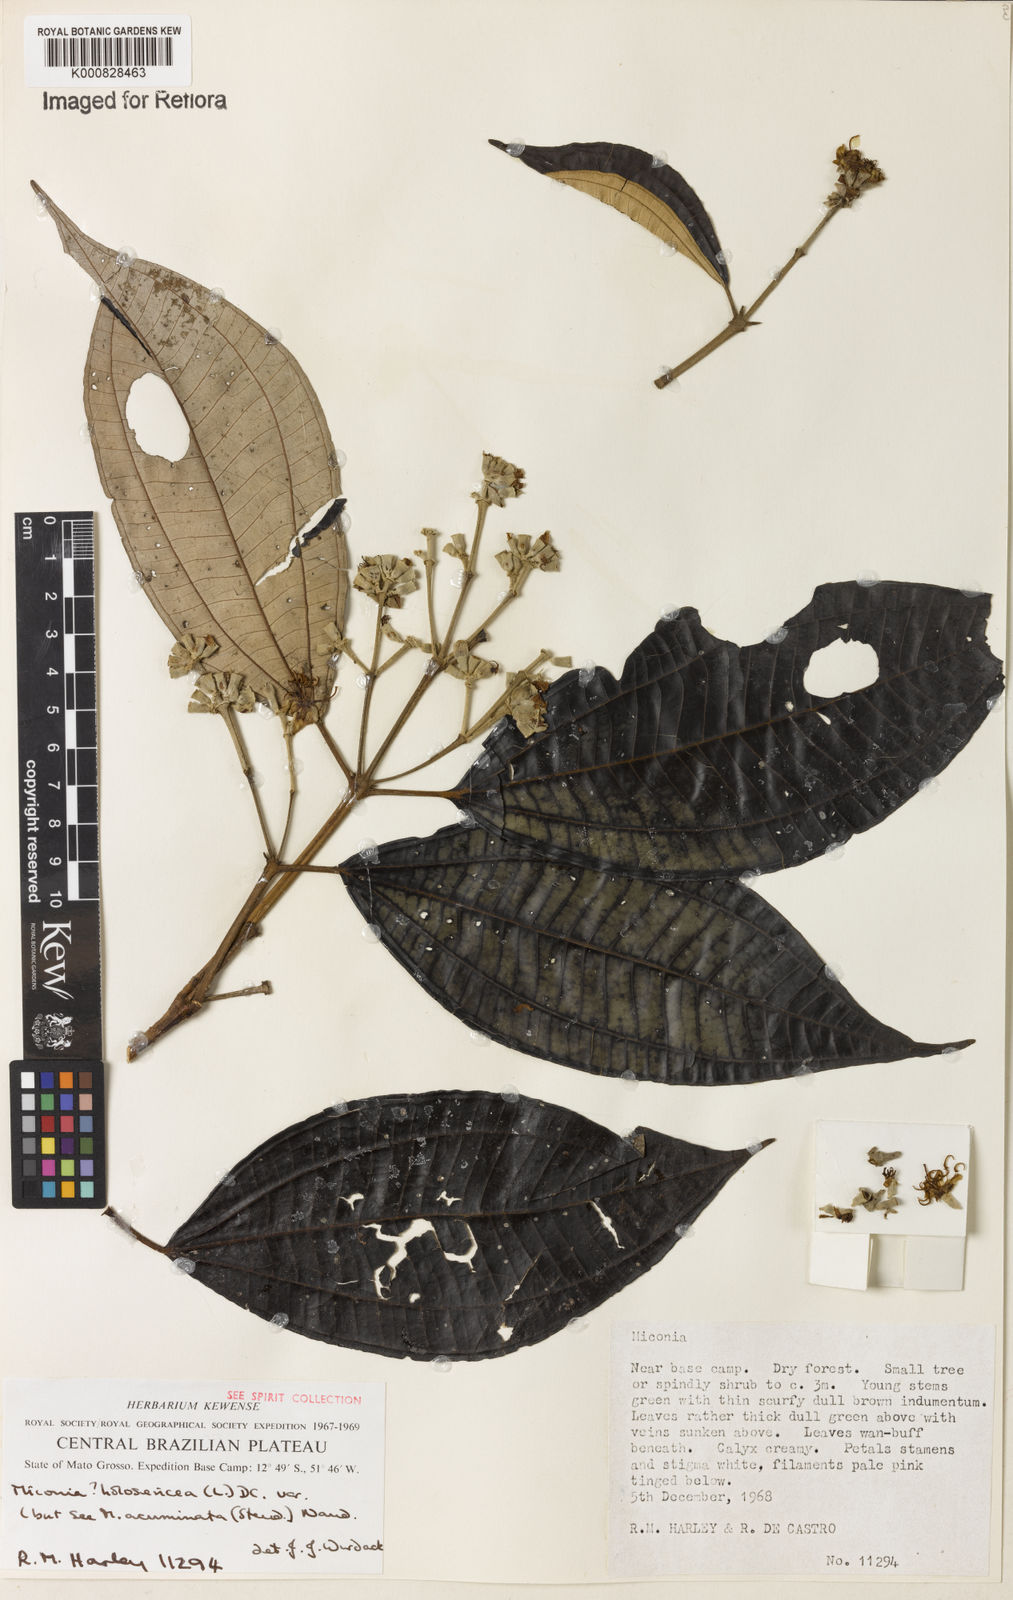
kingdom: Plantae
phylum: Tracheophyta
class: Magnoliopsida
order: Myrtales
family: Melastomataceae
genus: Miconia
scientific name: Miconia holosericea
